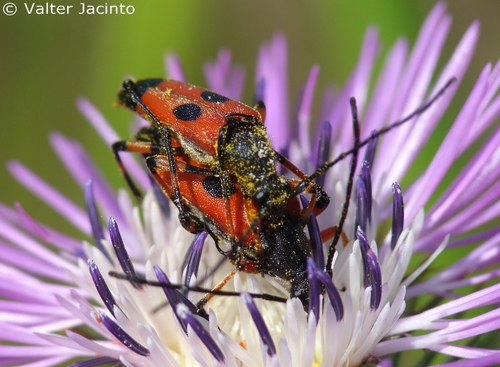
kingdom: Animalia
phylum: Arthropoda
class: Insecta
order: Coleoptera
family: Cerambycidae
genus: Nustera
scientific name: Nustera distigma
